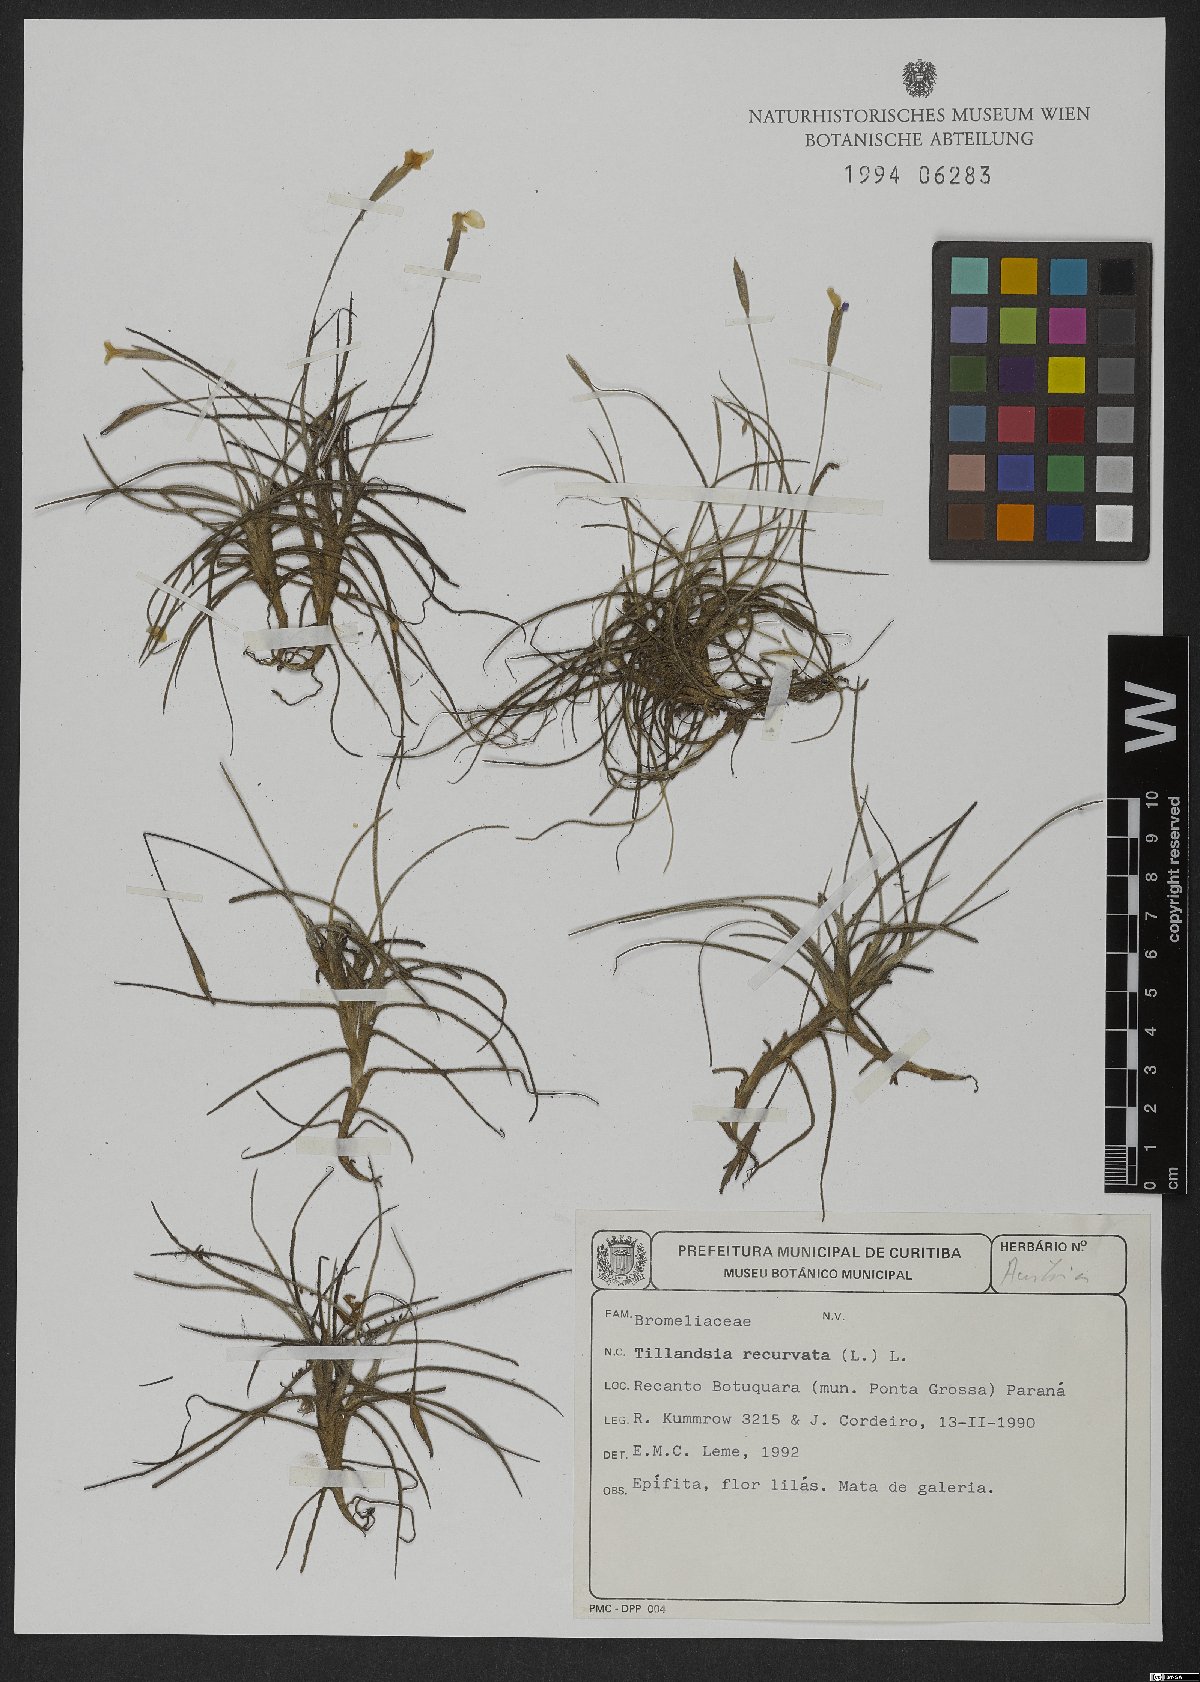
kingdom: Plantae
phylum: Tracheophyta
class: Liliopsida
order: Poales
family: Bromeliaceae
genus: Tillandsia
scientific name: Tillandsia recurvata
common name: Small ballmoss
